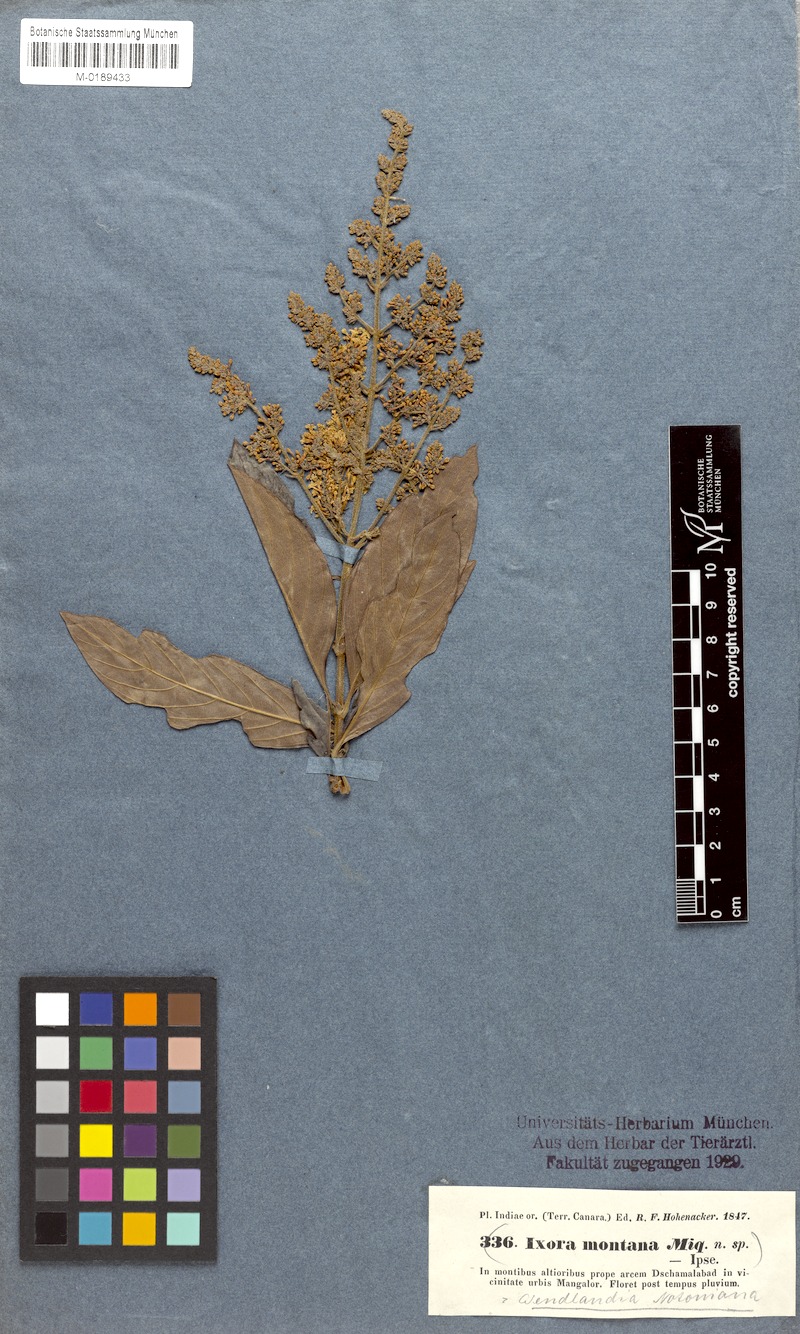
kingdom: Plantae
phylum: Tracheophyta
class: Magnoliopsida
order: Gentianales
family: Rubiaceae
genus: Wendlandia
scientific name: Wendlandia thyrsoidea
